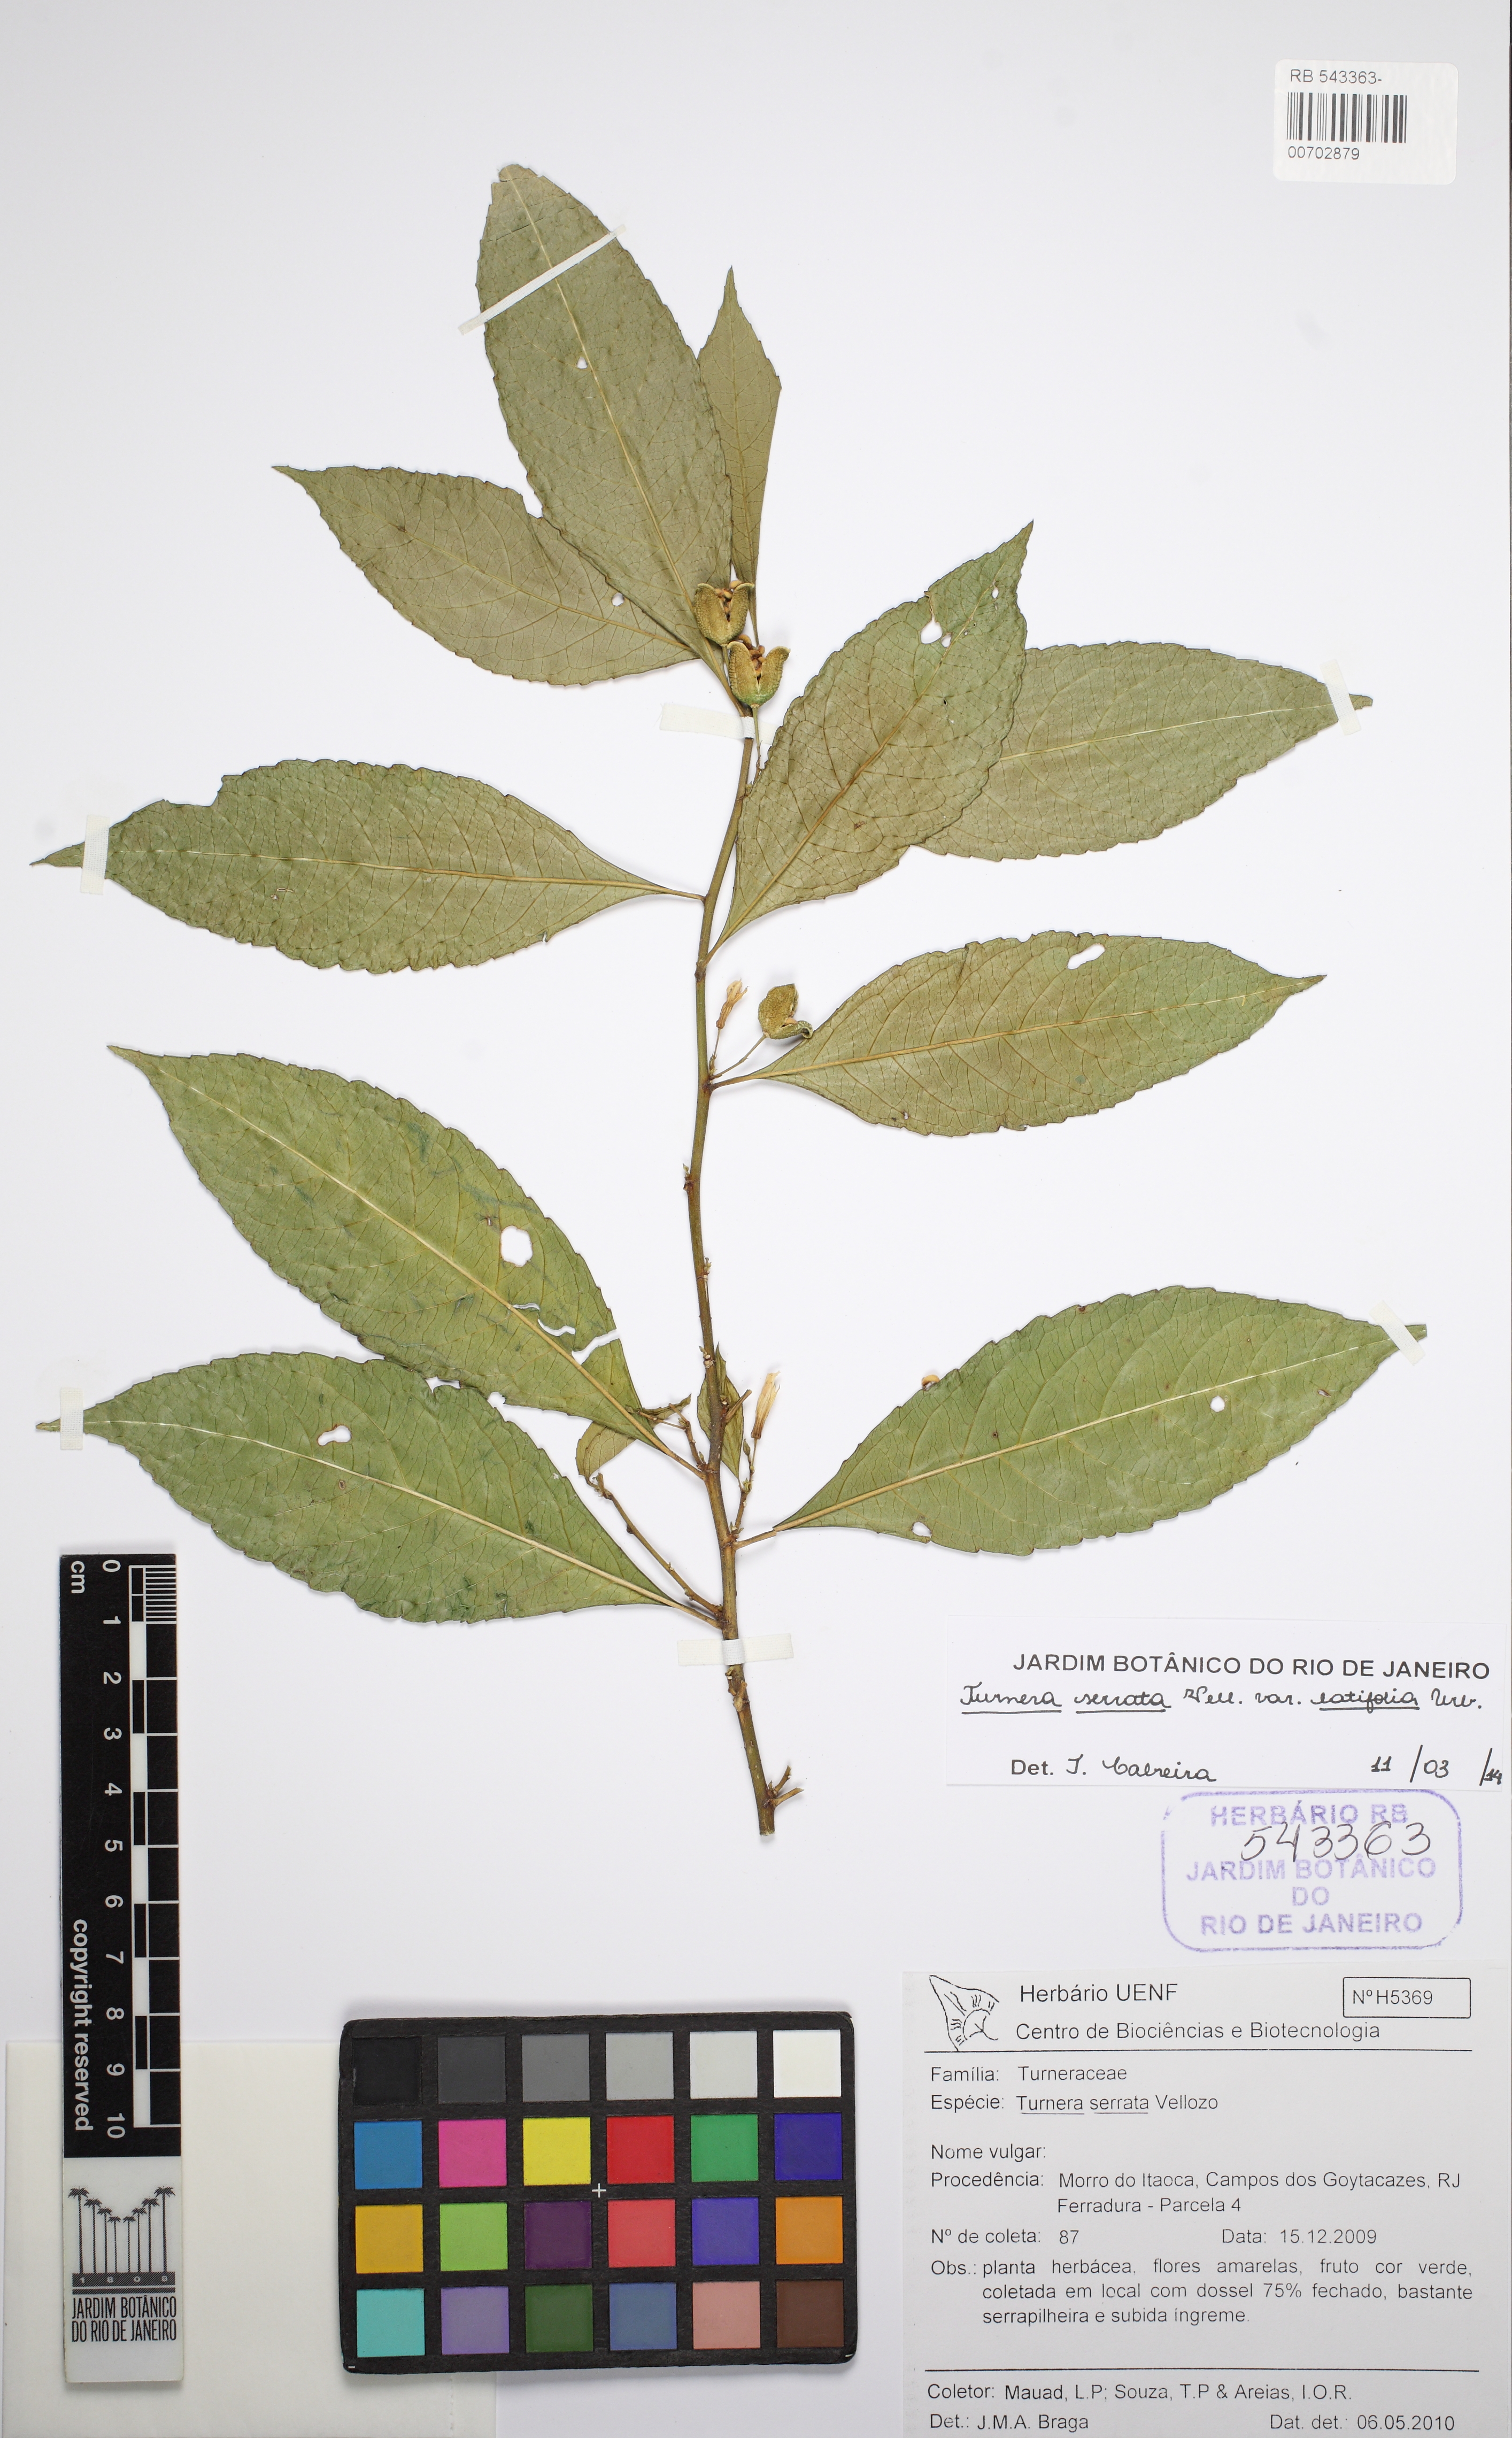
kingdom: Plantae
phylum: Tracheophyta
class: Magnoliopsida
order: Malpighiales
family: Turneraceae
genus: Turnera
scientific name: Turnera serrata
